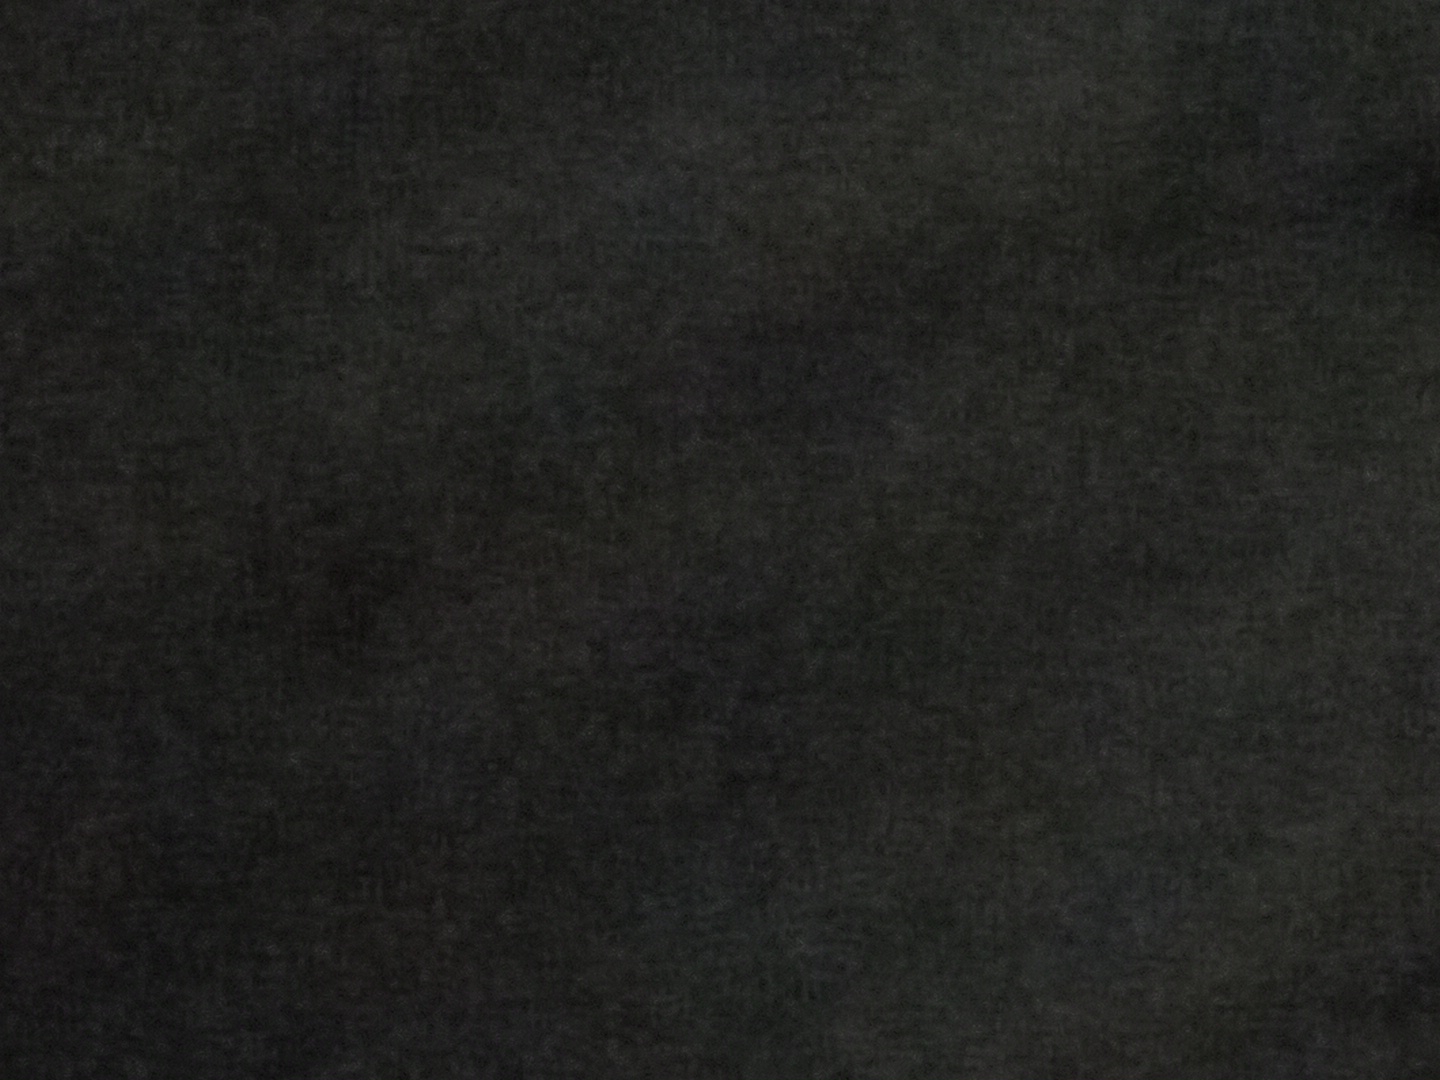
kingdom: Fungi
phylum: Basidiomycota
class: Agaricomycetes
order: Polyporales
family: Polyporaceae
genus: Fomes
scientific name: Fomes fomentarius
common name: tøndersvamp
